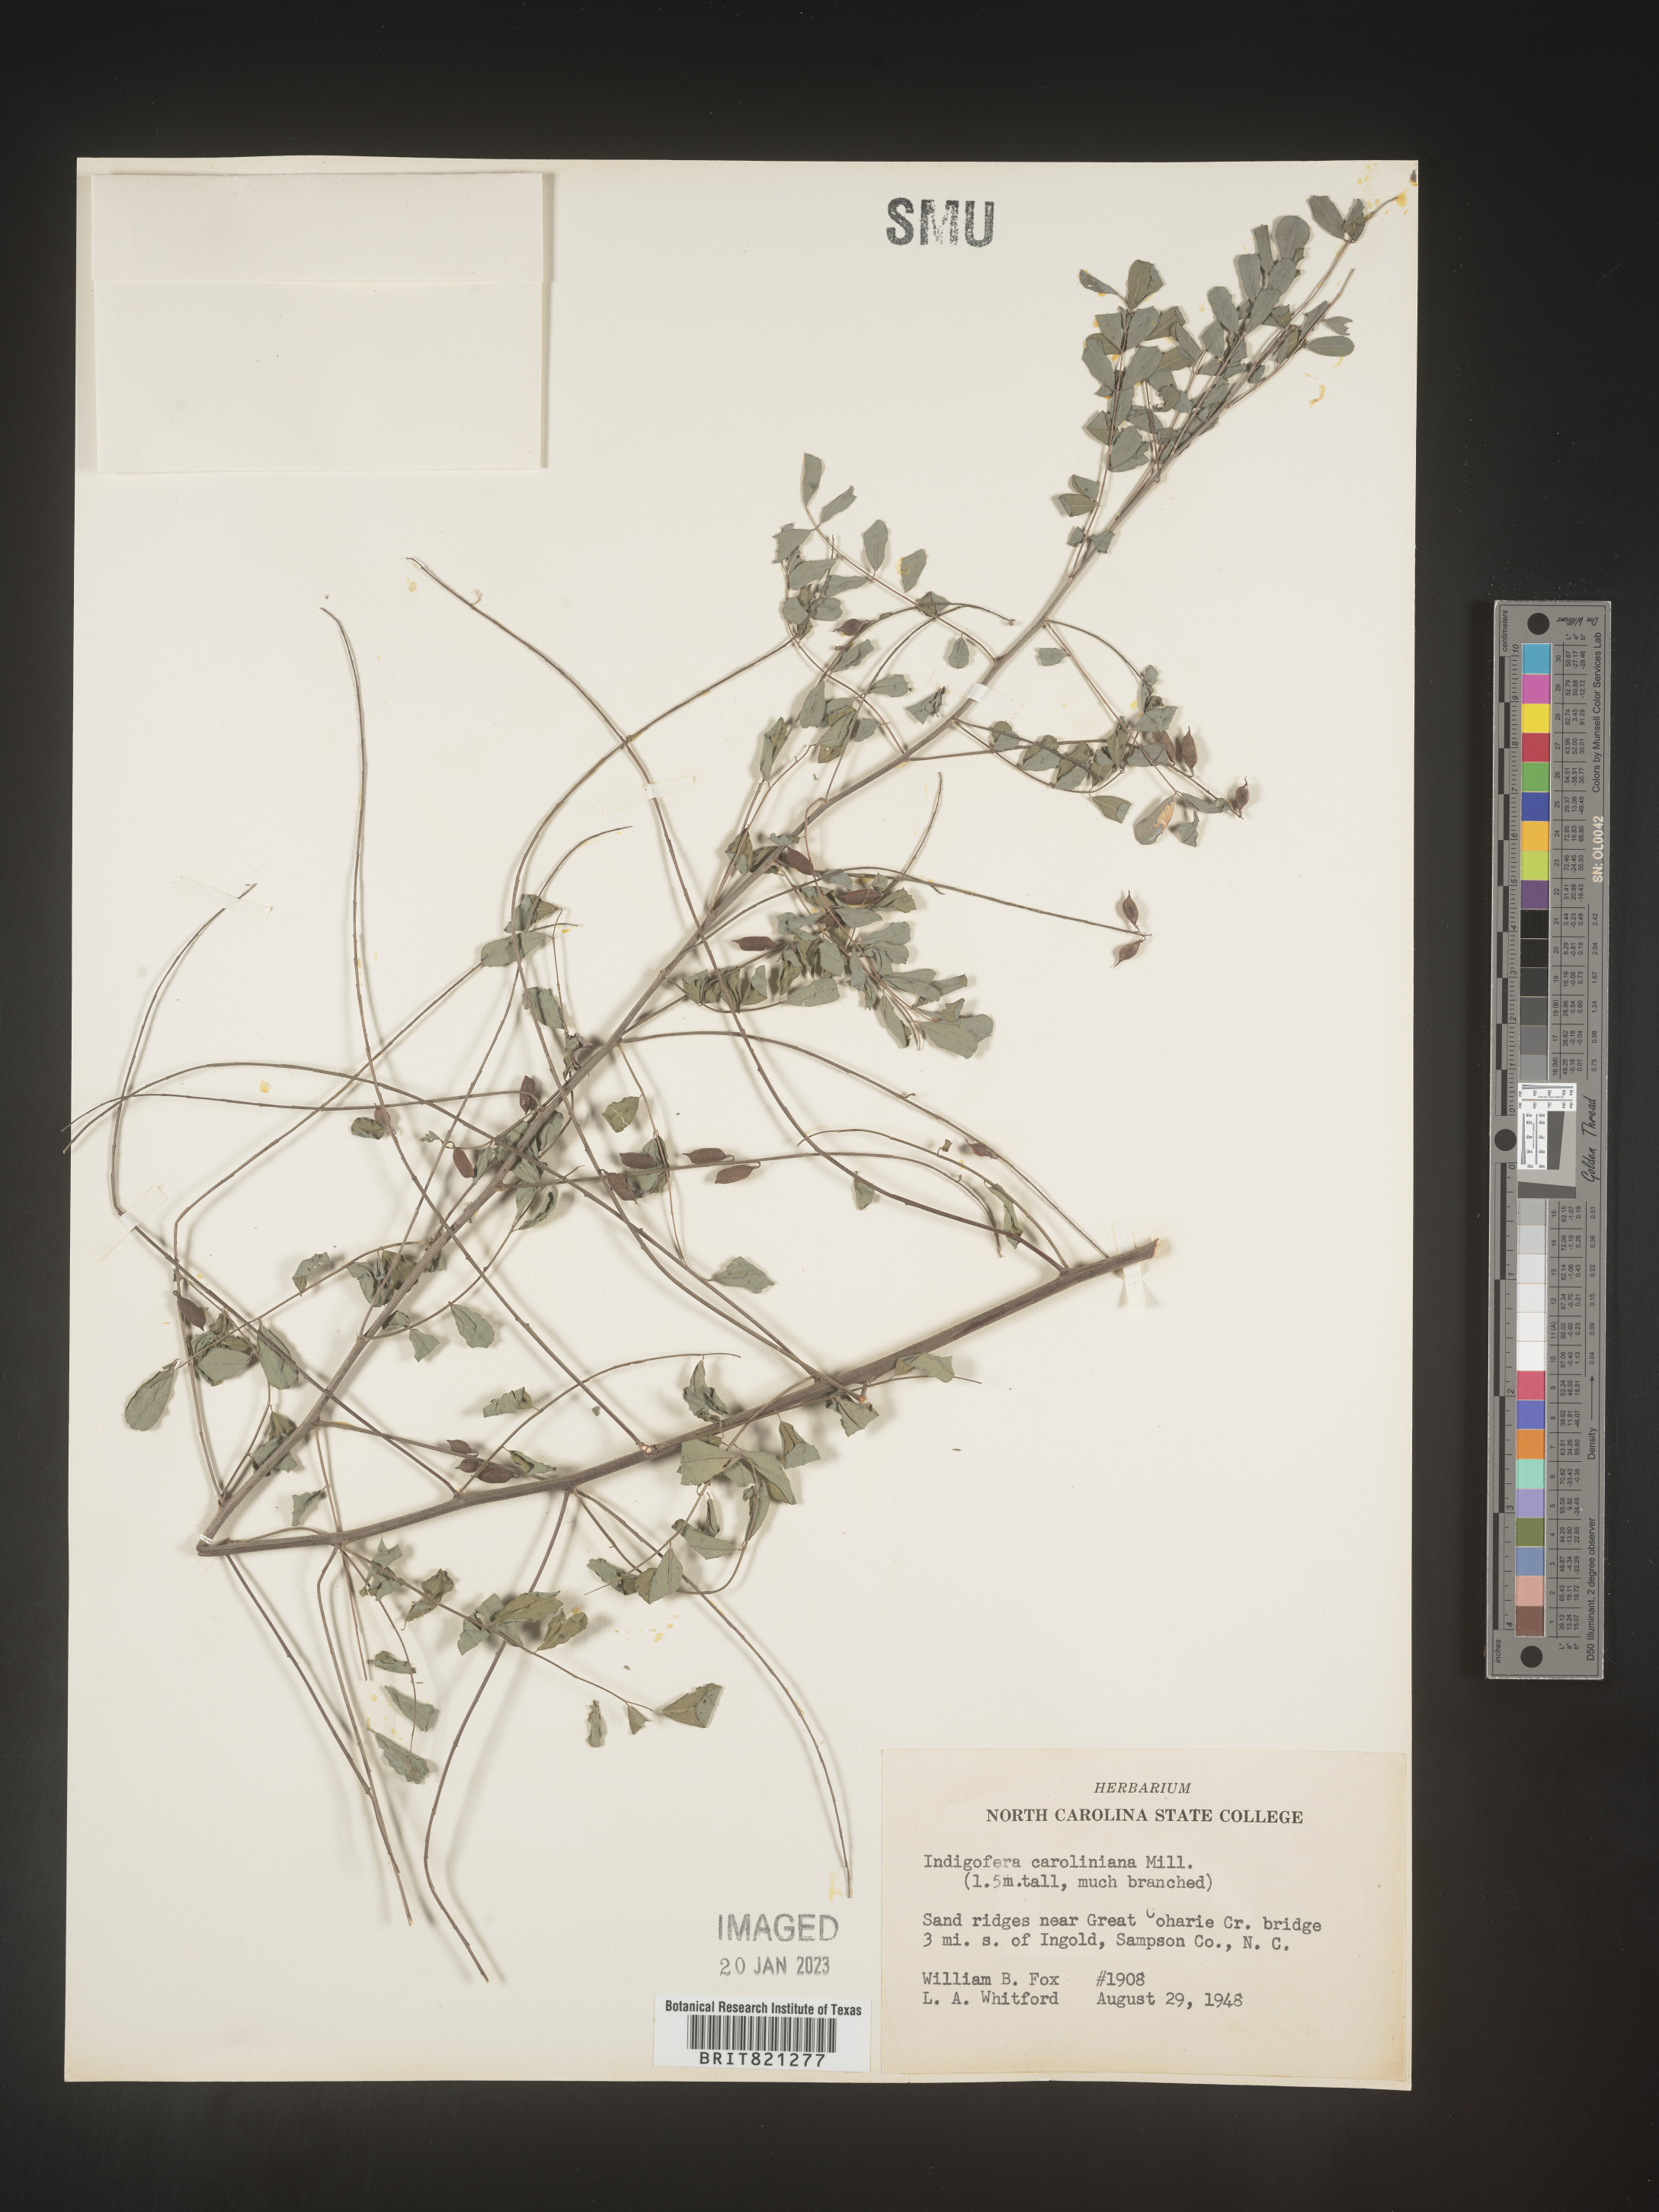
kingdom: Plantae
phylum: Tracheophyta
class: Magnoliopsida
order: Fabales
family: Fabaceae
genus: Indigofera
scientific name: Indigofera
